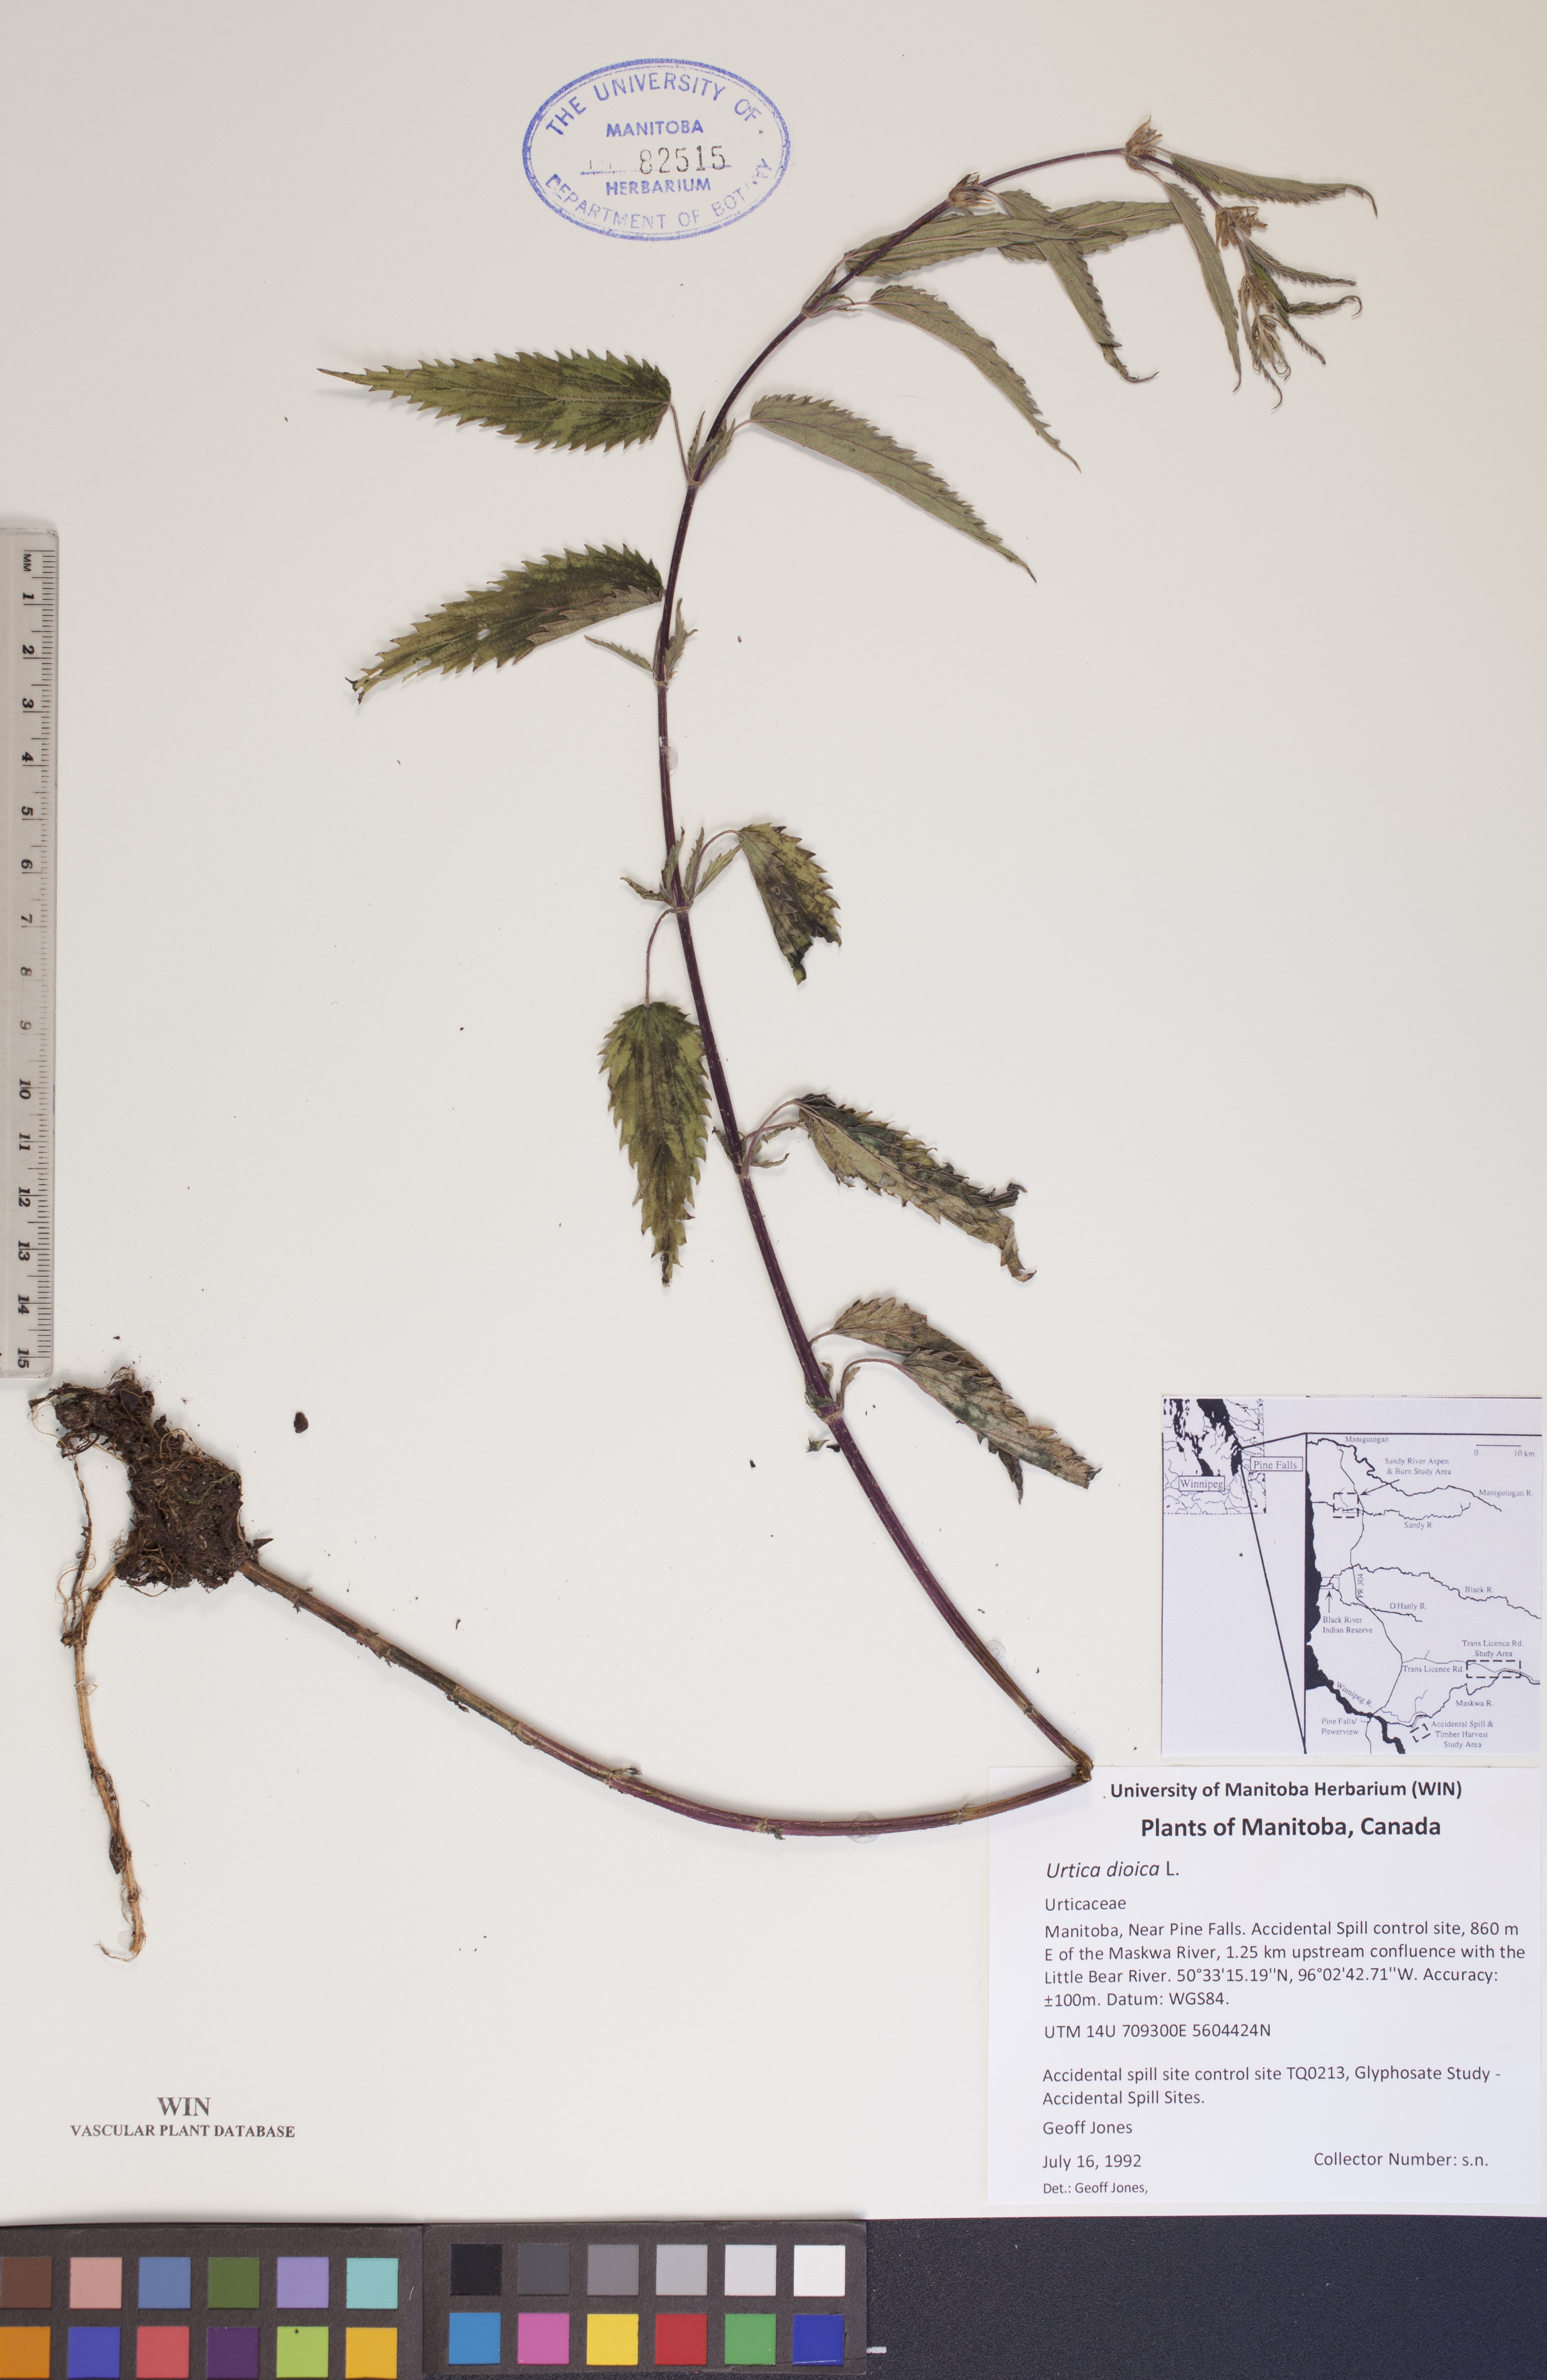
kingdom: Plantae
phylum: Tracheophyta
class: Magnoliopsida
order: Rosales
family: Urticaceae
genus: Urtica
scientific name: Urtica dioica
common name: Common nettle
